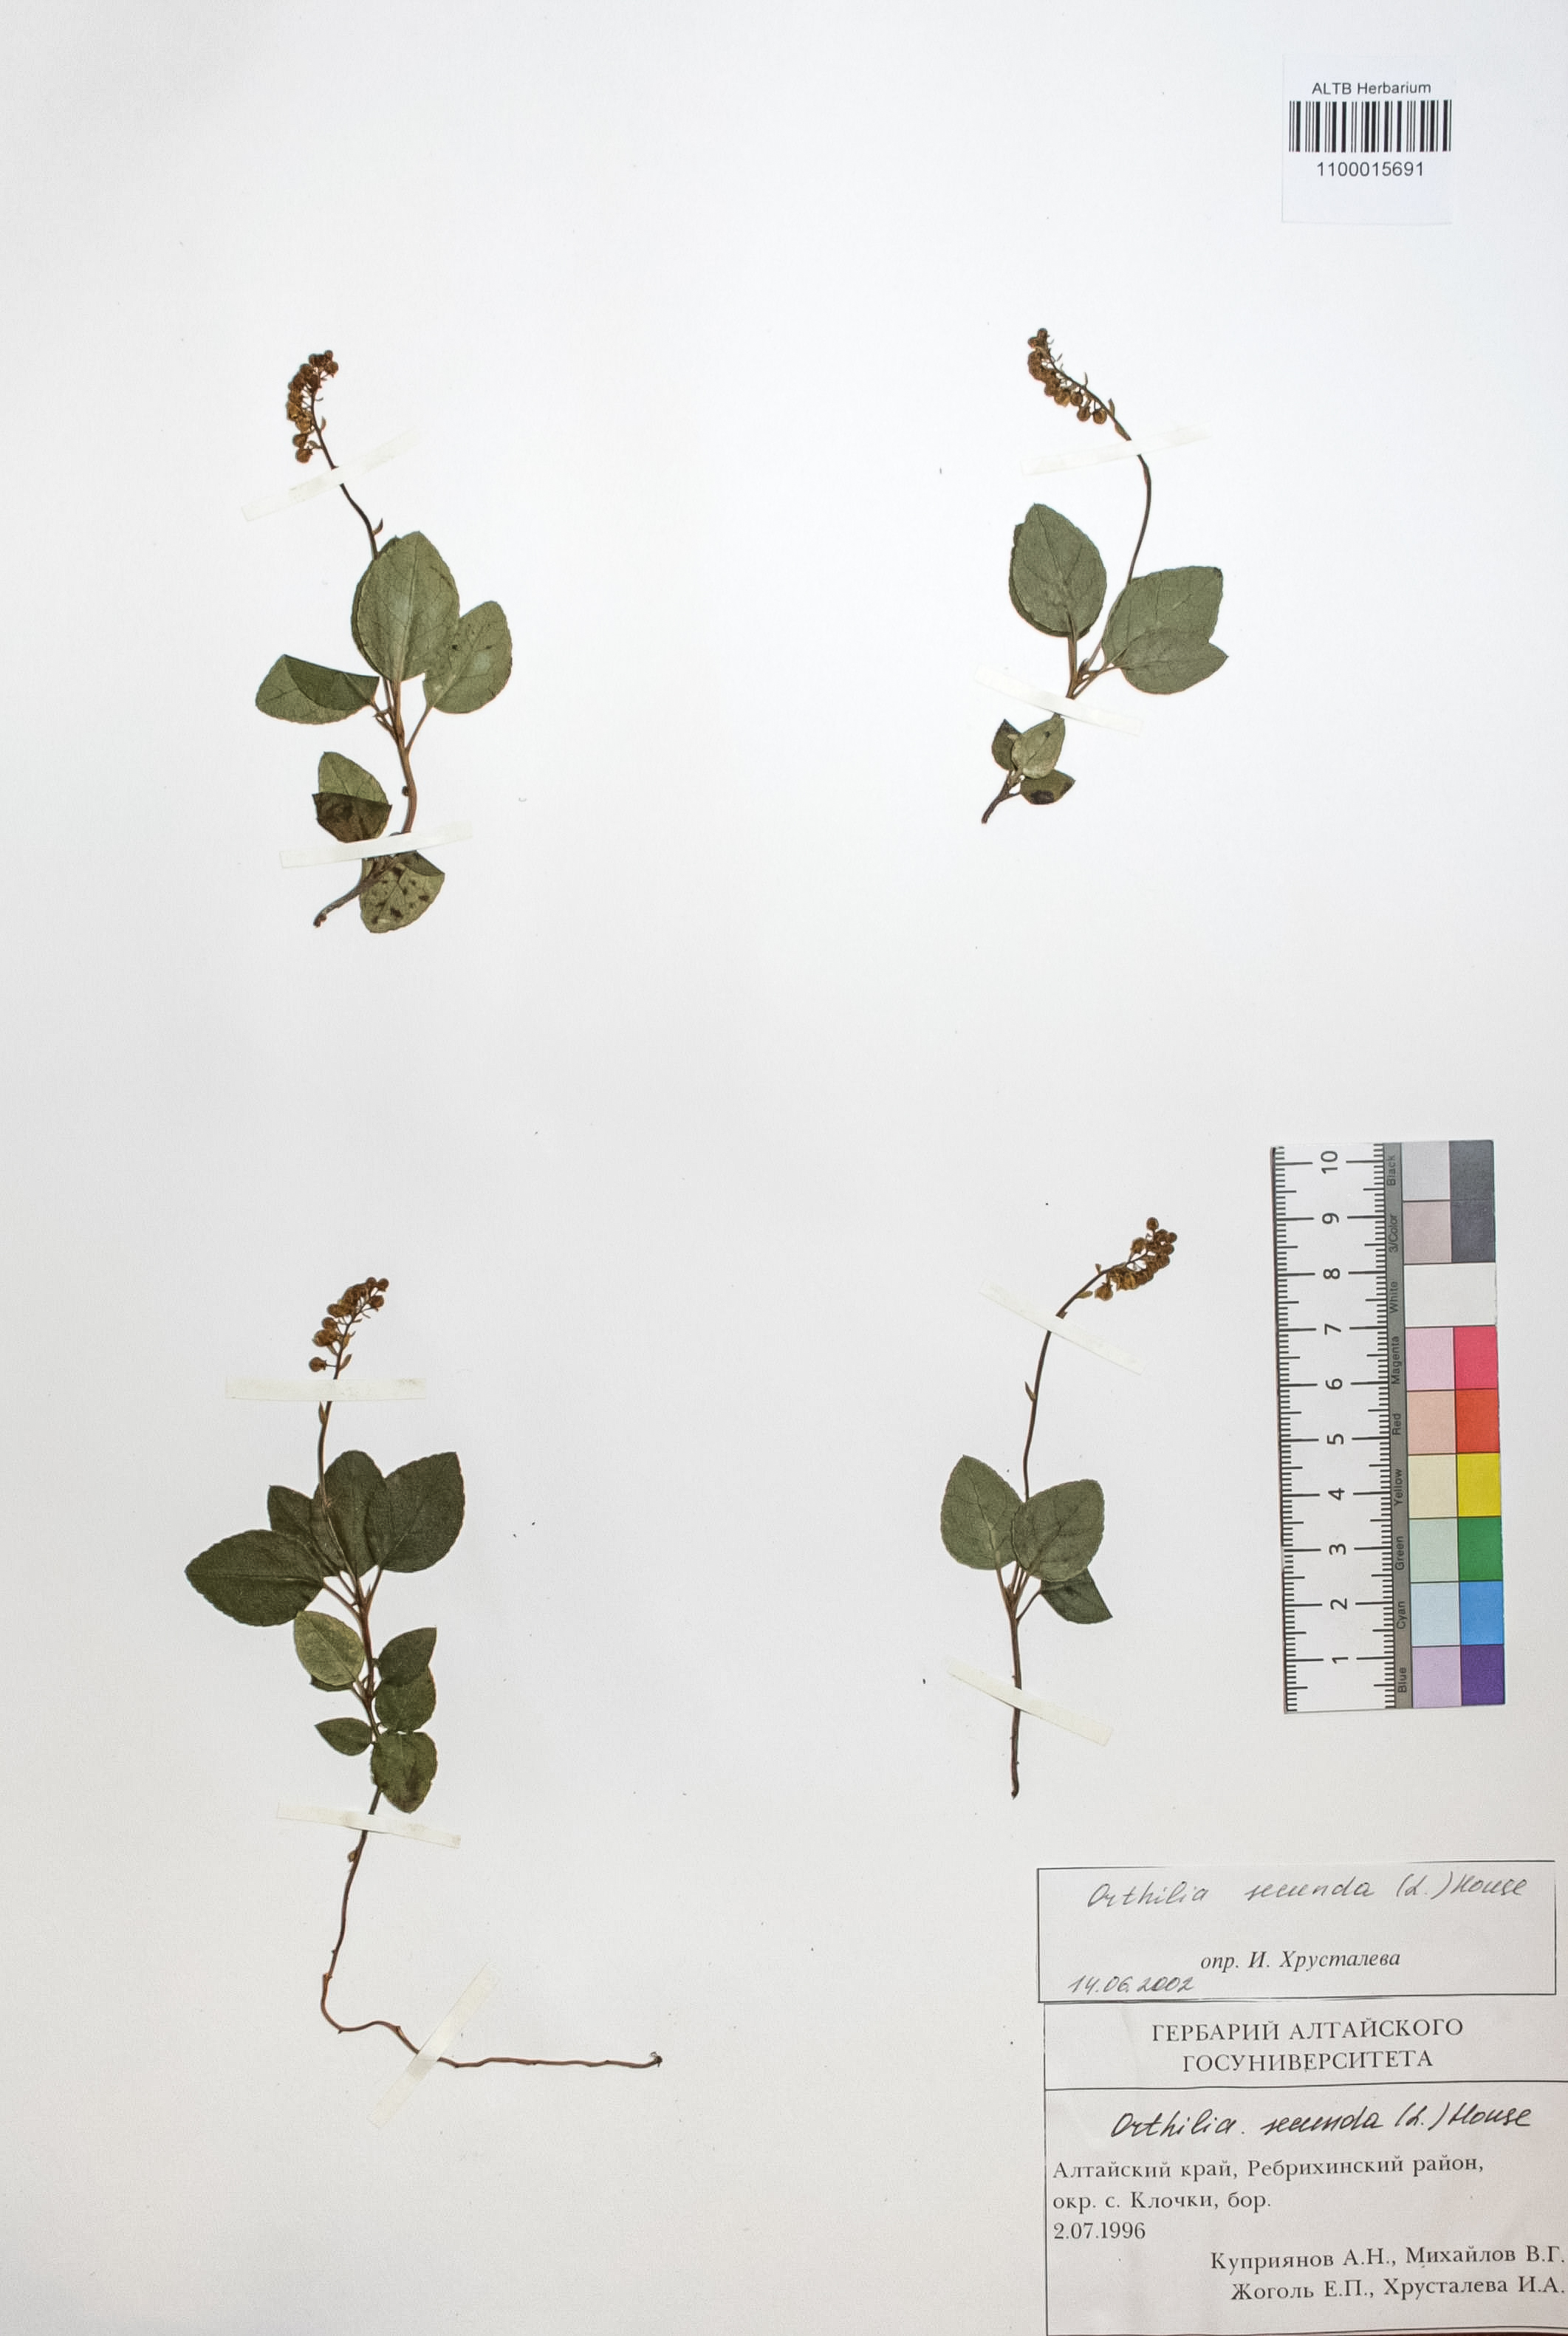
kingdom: Plantae
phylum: Tracheophyta
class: Magnoliopsida
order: Ericales
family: Ericaceae
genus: Orthilia
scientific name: Orthilia secunda
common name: One-sided orthilia
